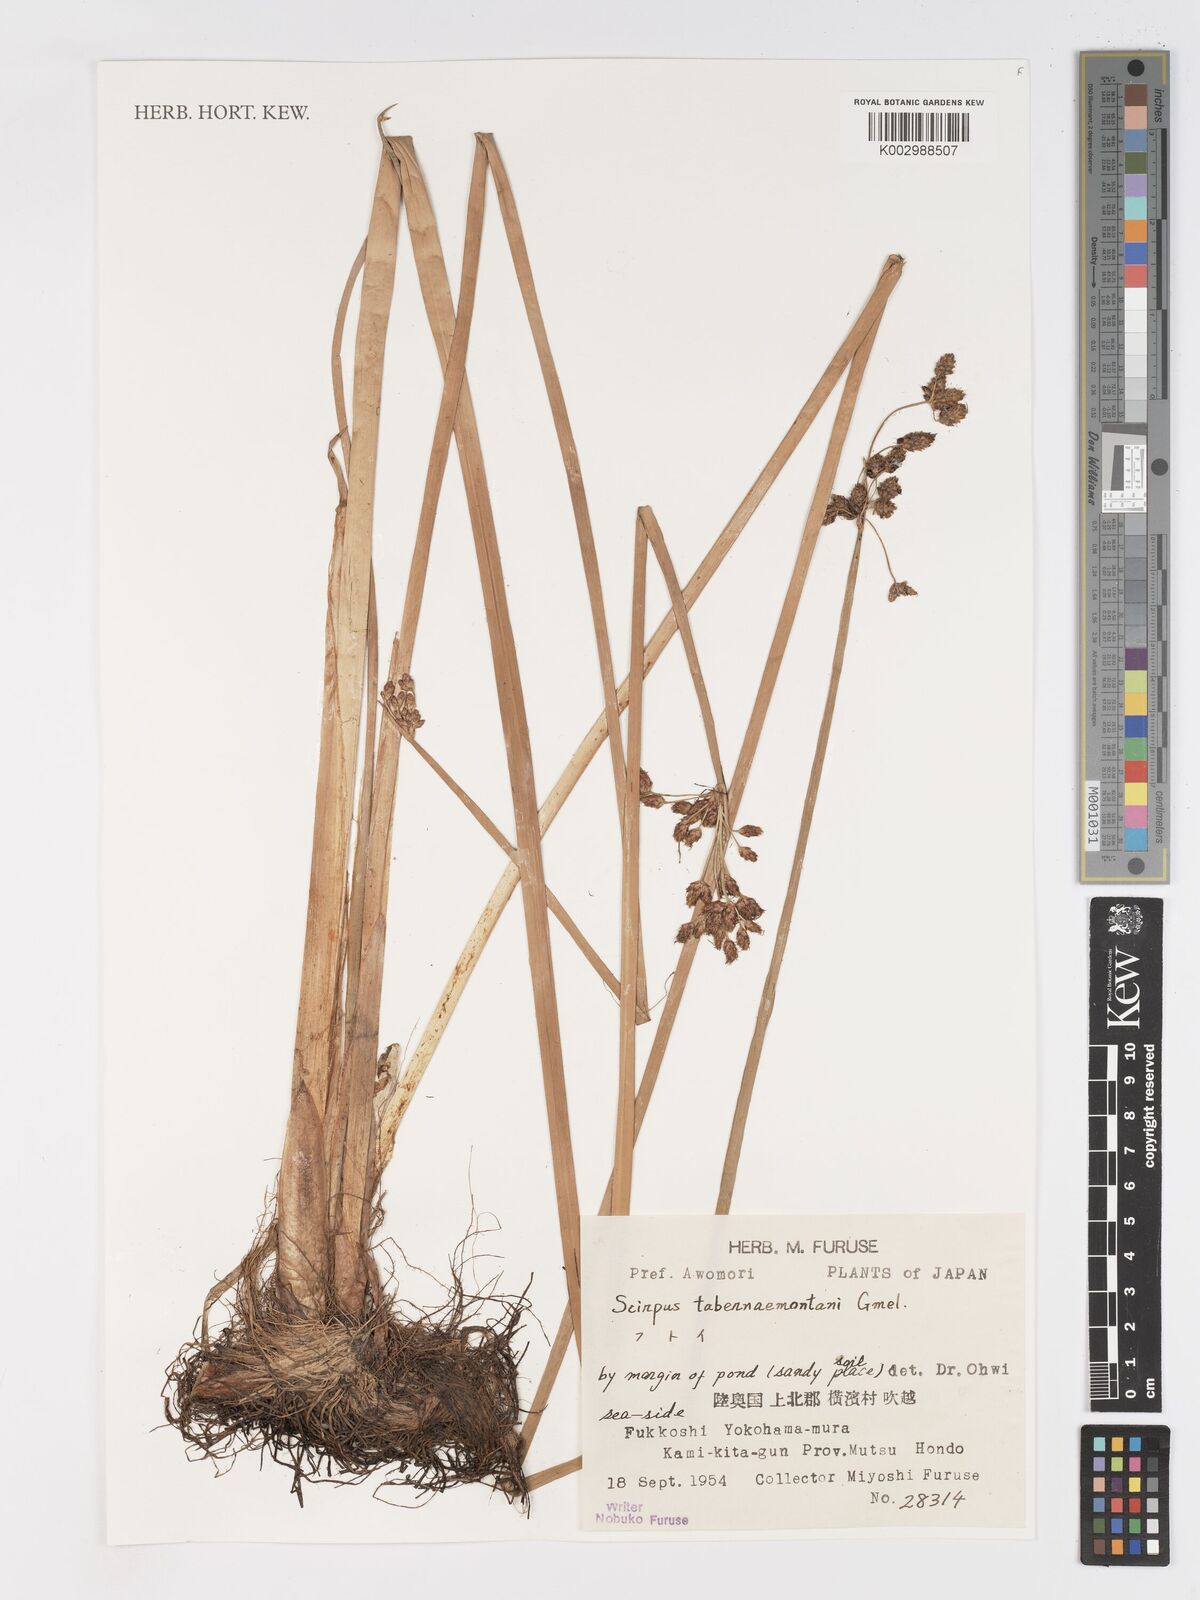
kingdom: Plantae
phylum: Tracheophyta
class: Liliopsida
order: Poales
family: Cyperaceae
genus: Schoenoplectus
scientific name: Schoenoplectus tabernaemontani
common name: Grey club-rush
